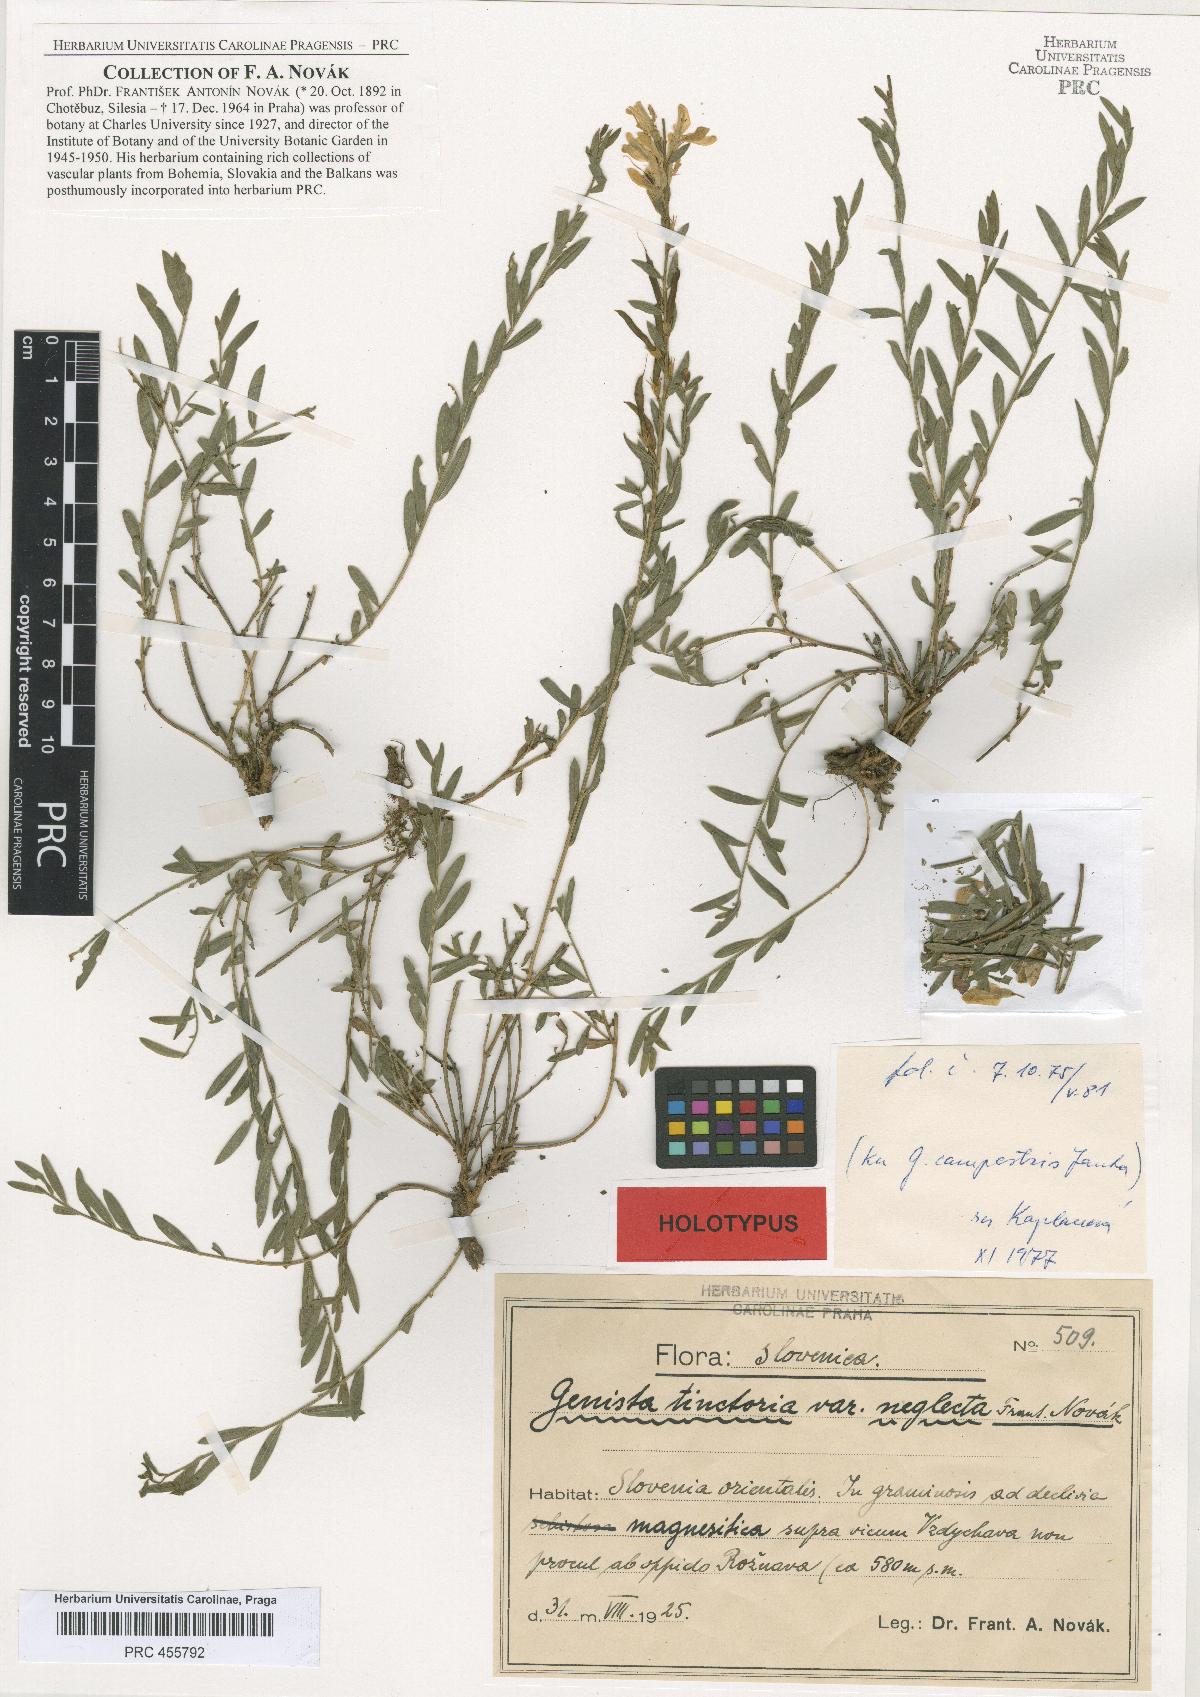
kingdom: Plantae
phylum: Tracheophyta
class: Magnoliopsida
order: Fabales
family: Fabaceae
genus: Genista
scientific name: Genista tinctoria
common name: Dyer's greenweed
